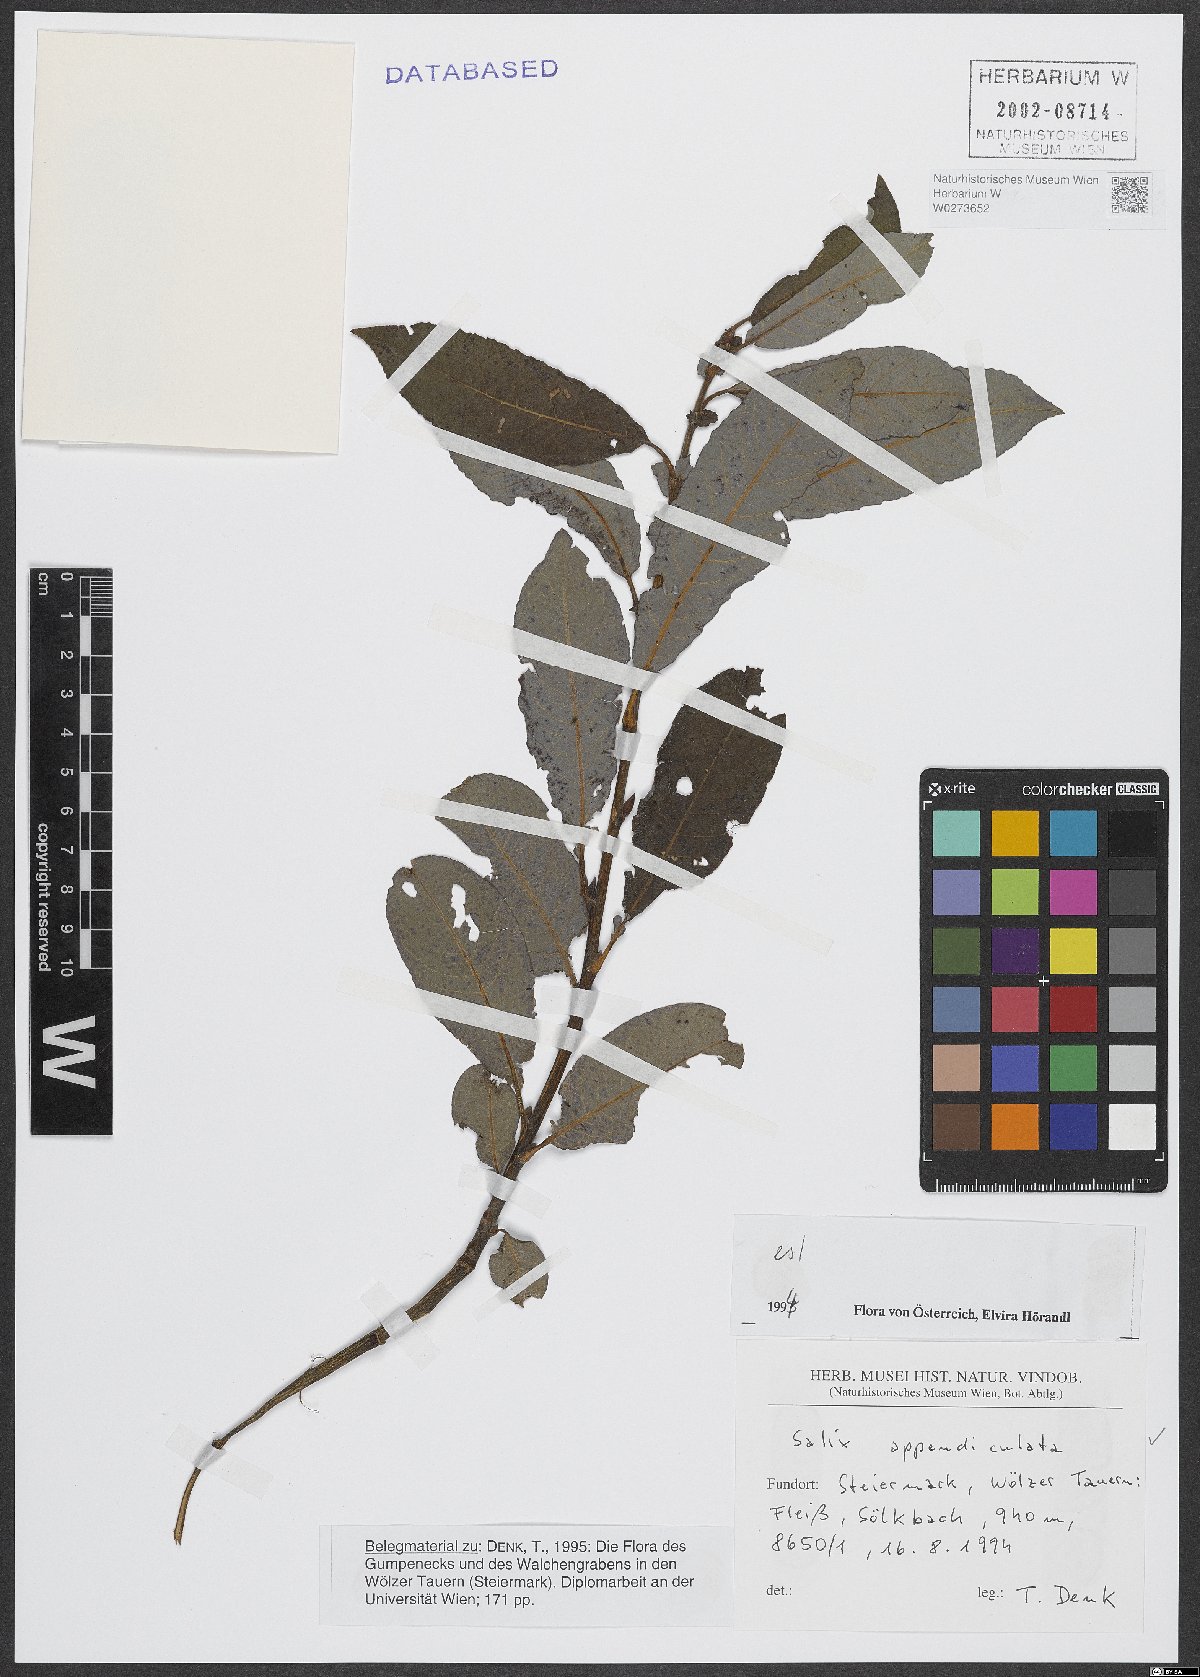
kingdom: Plantae
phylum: Tracheophyta
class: Magnoliopsida
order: Malpighiales
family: Salicaceae
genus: Salix
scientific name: Salix appendiculata
